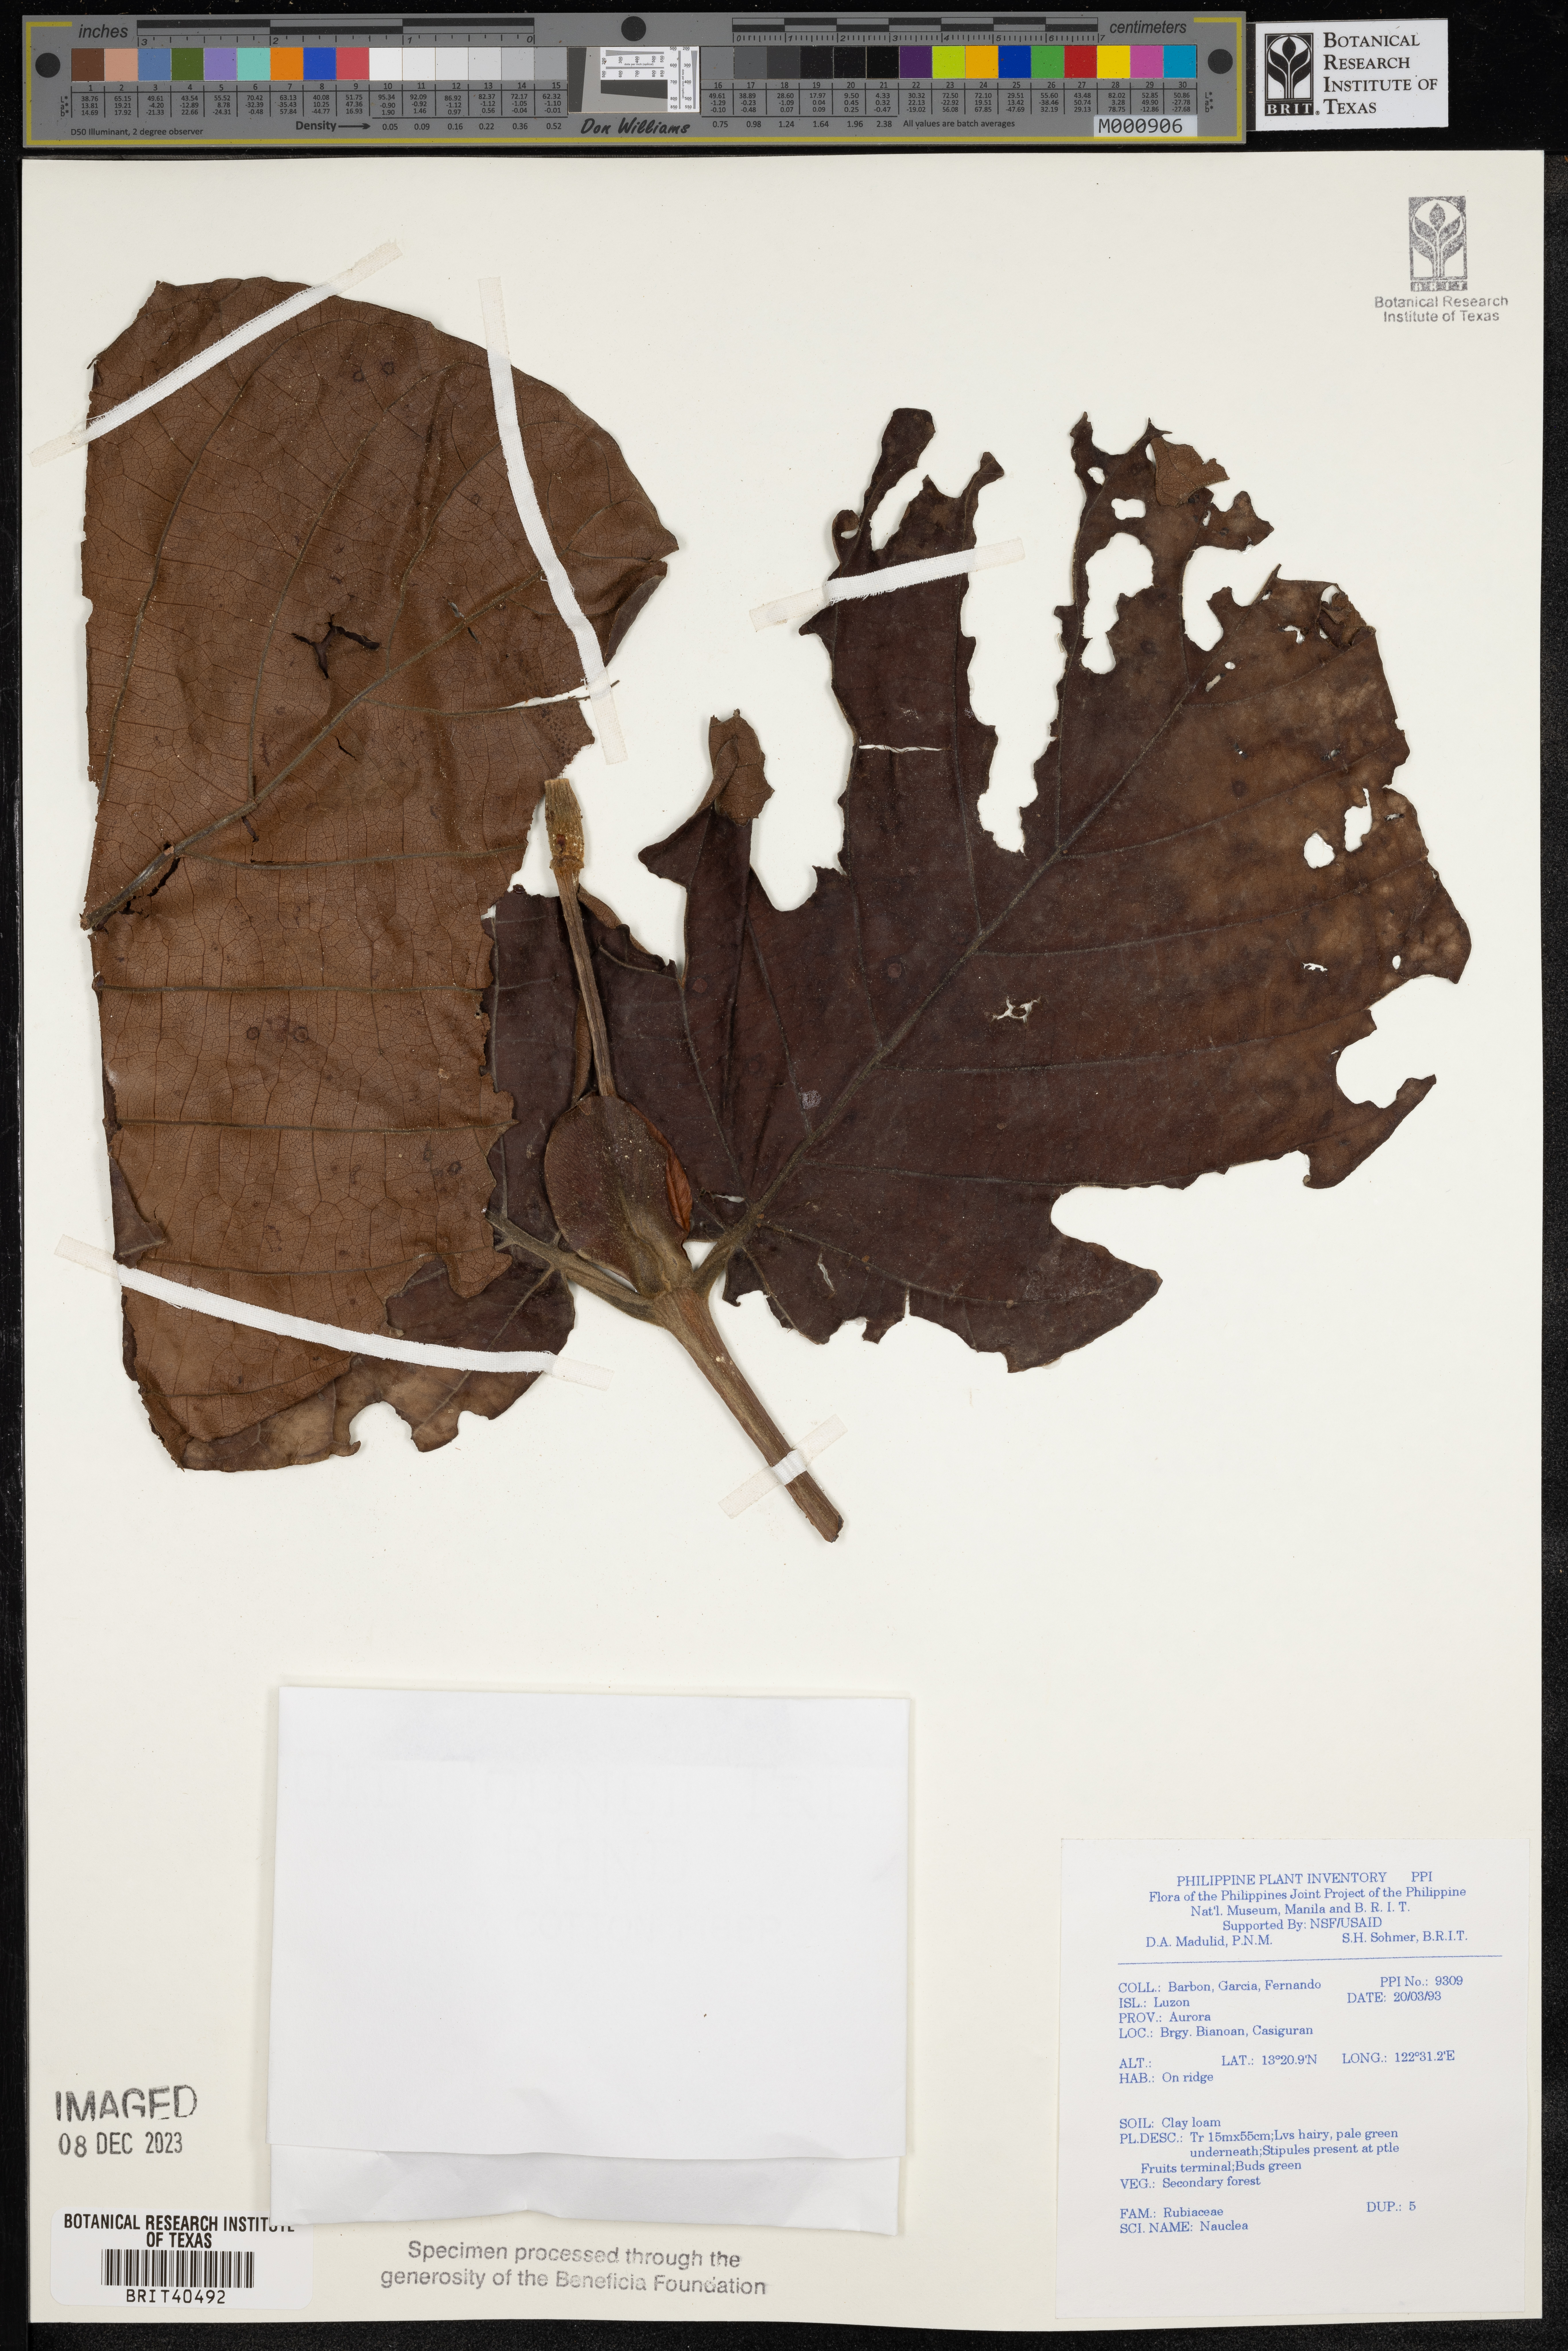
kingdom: Plantae
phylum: Tracheophyta
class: Magnoliopsida
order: Gentianales
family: Rubiaceae
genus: Nauclea
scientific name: Nauclea
